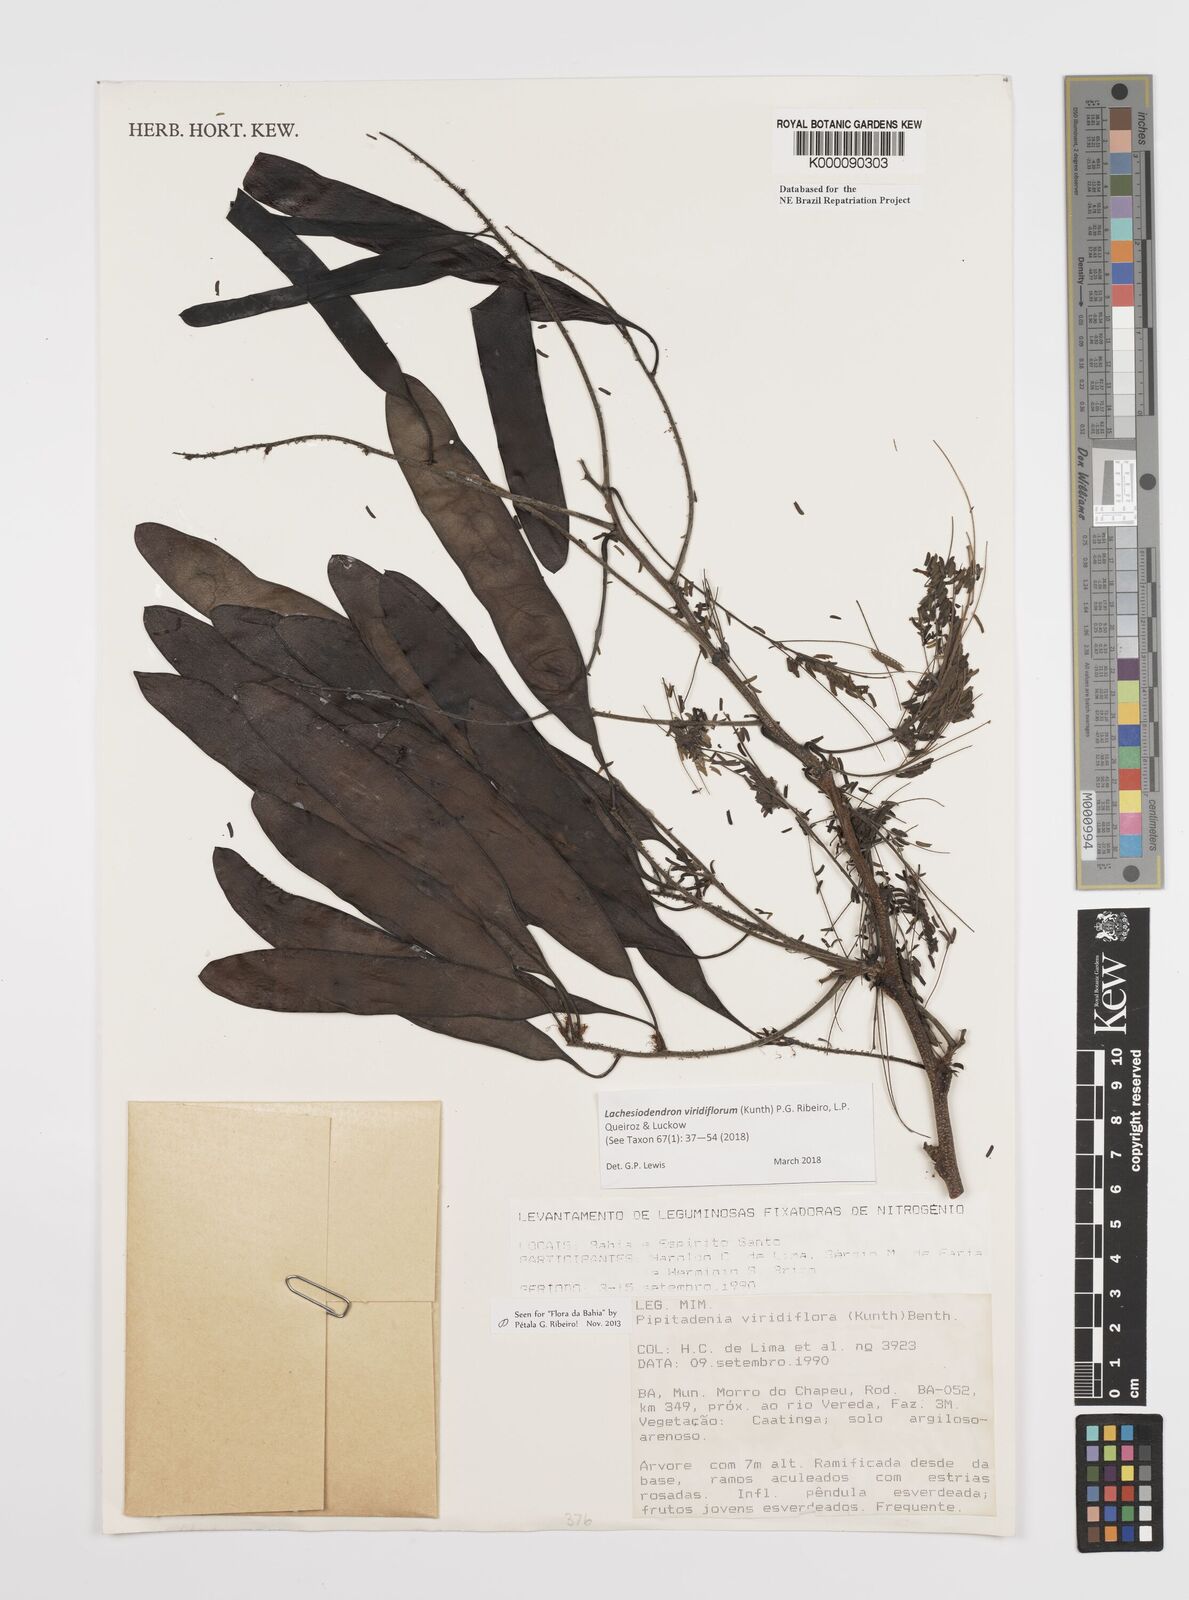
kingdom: Plantae
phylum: Tracheophyta
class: Magnoliopsida
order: Fabales
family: Fabaceae
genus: Lachesiodendron
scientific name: Lachesiodendron viridiflorum
